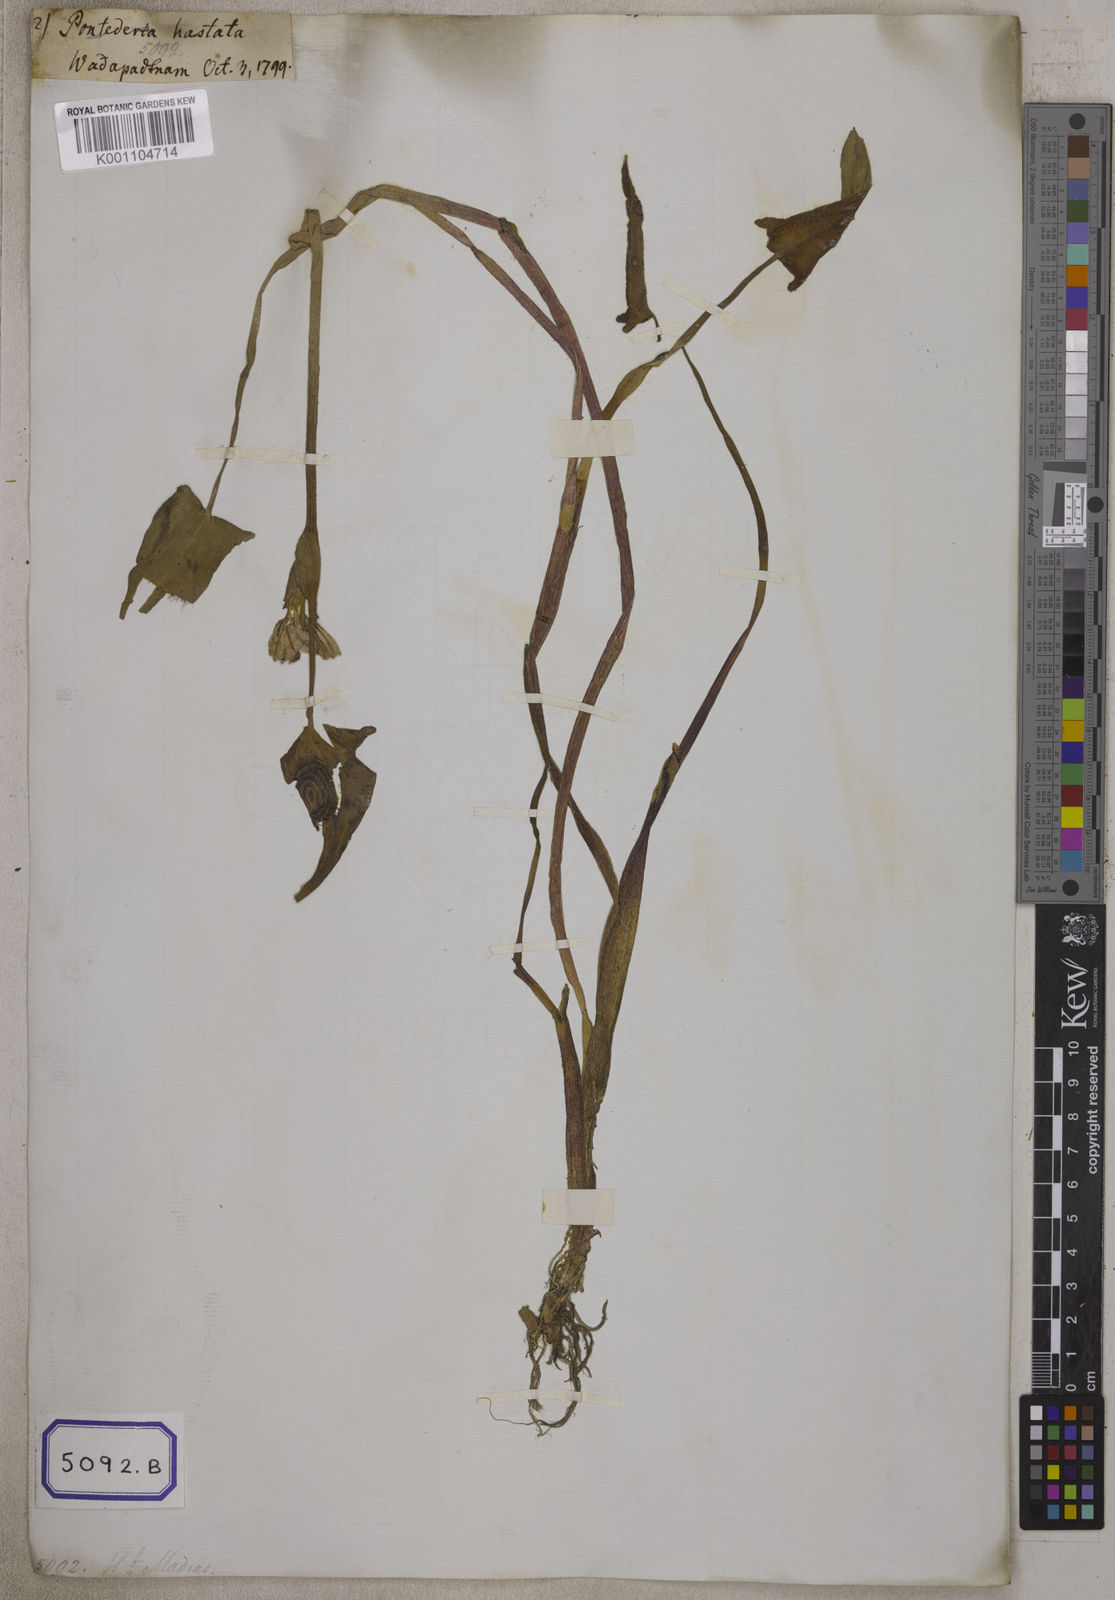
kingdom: Plantae
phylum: Tracheophyta
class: Liliopsida
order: Commelinales
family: Pontederiaceae
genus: Pontederia
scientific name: Pontederia hastata
